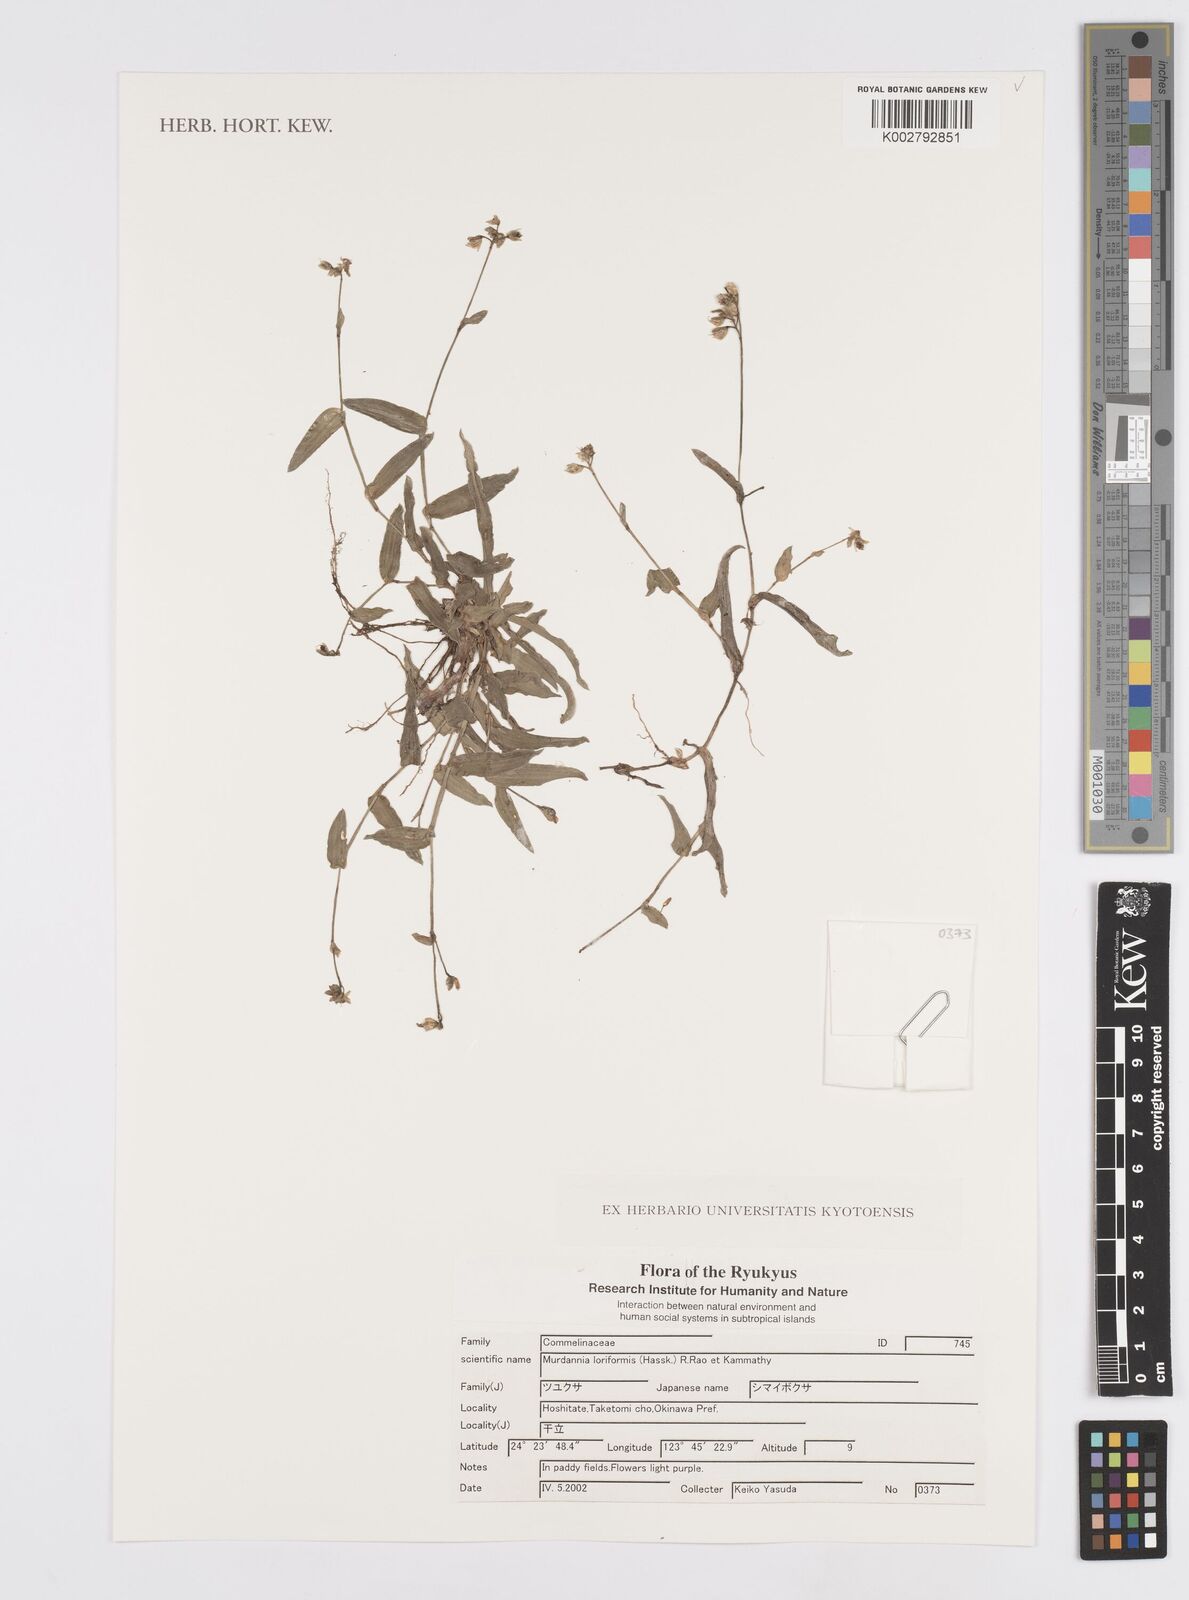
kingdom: Plantae
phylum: Tracheophyta
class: Liliopsida
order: Commelinales
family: Commelinaceae
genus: Murdannia
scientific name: Murdannia loriformis
